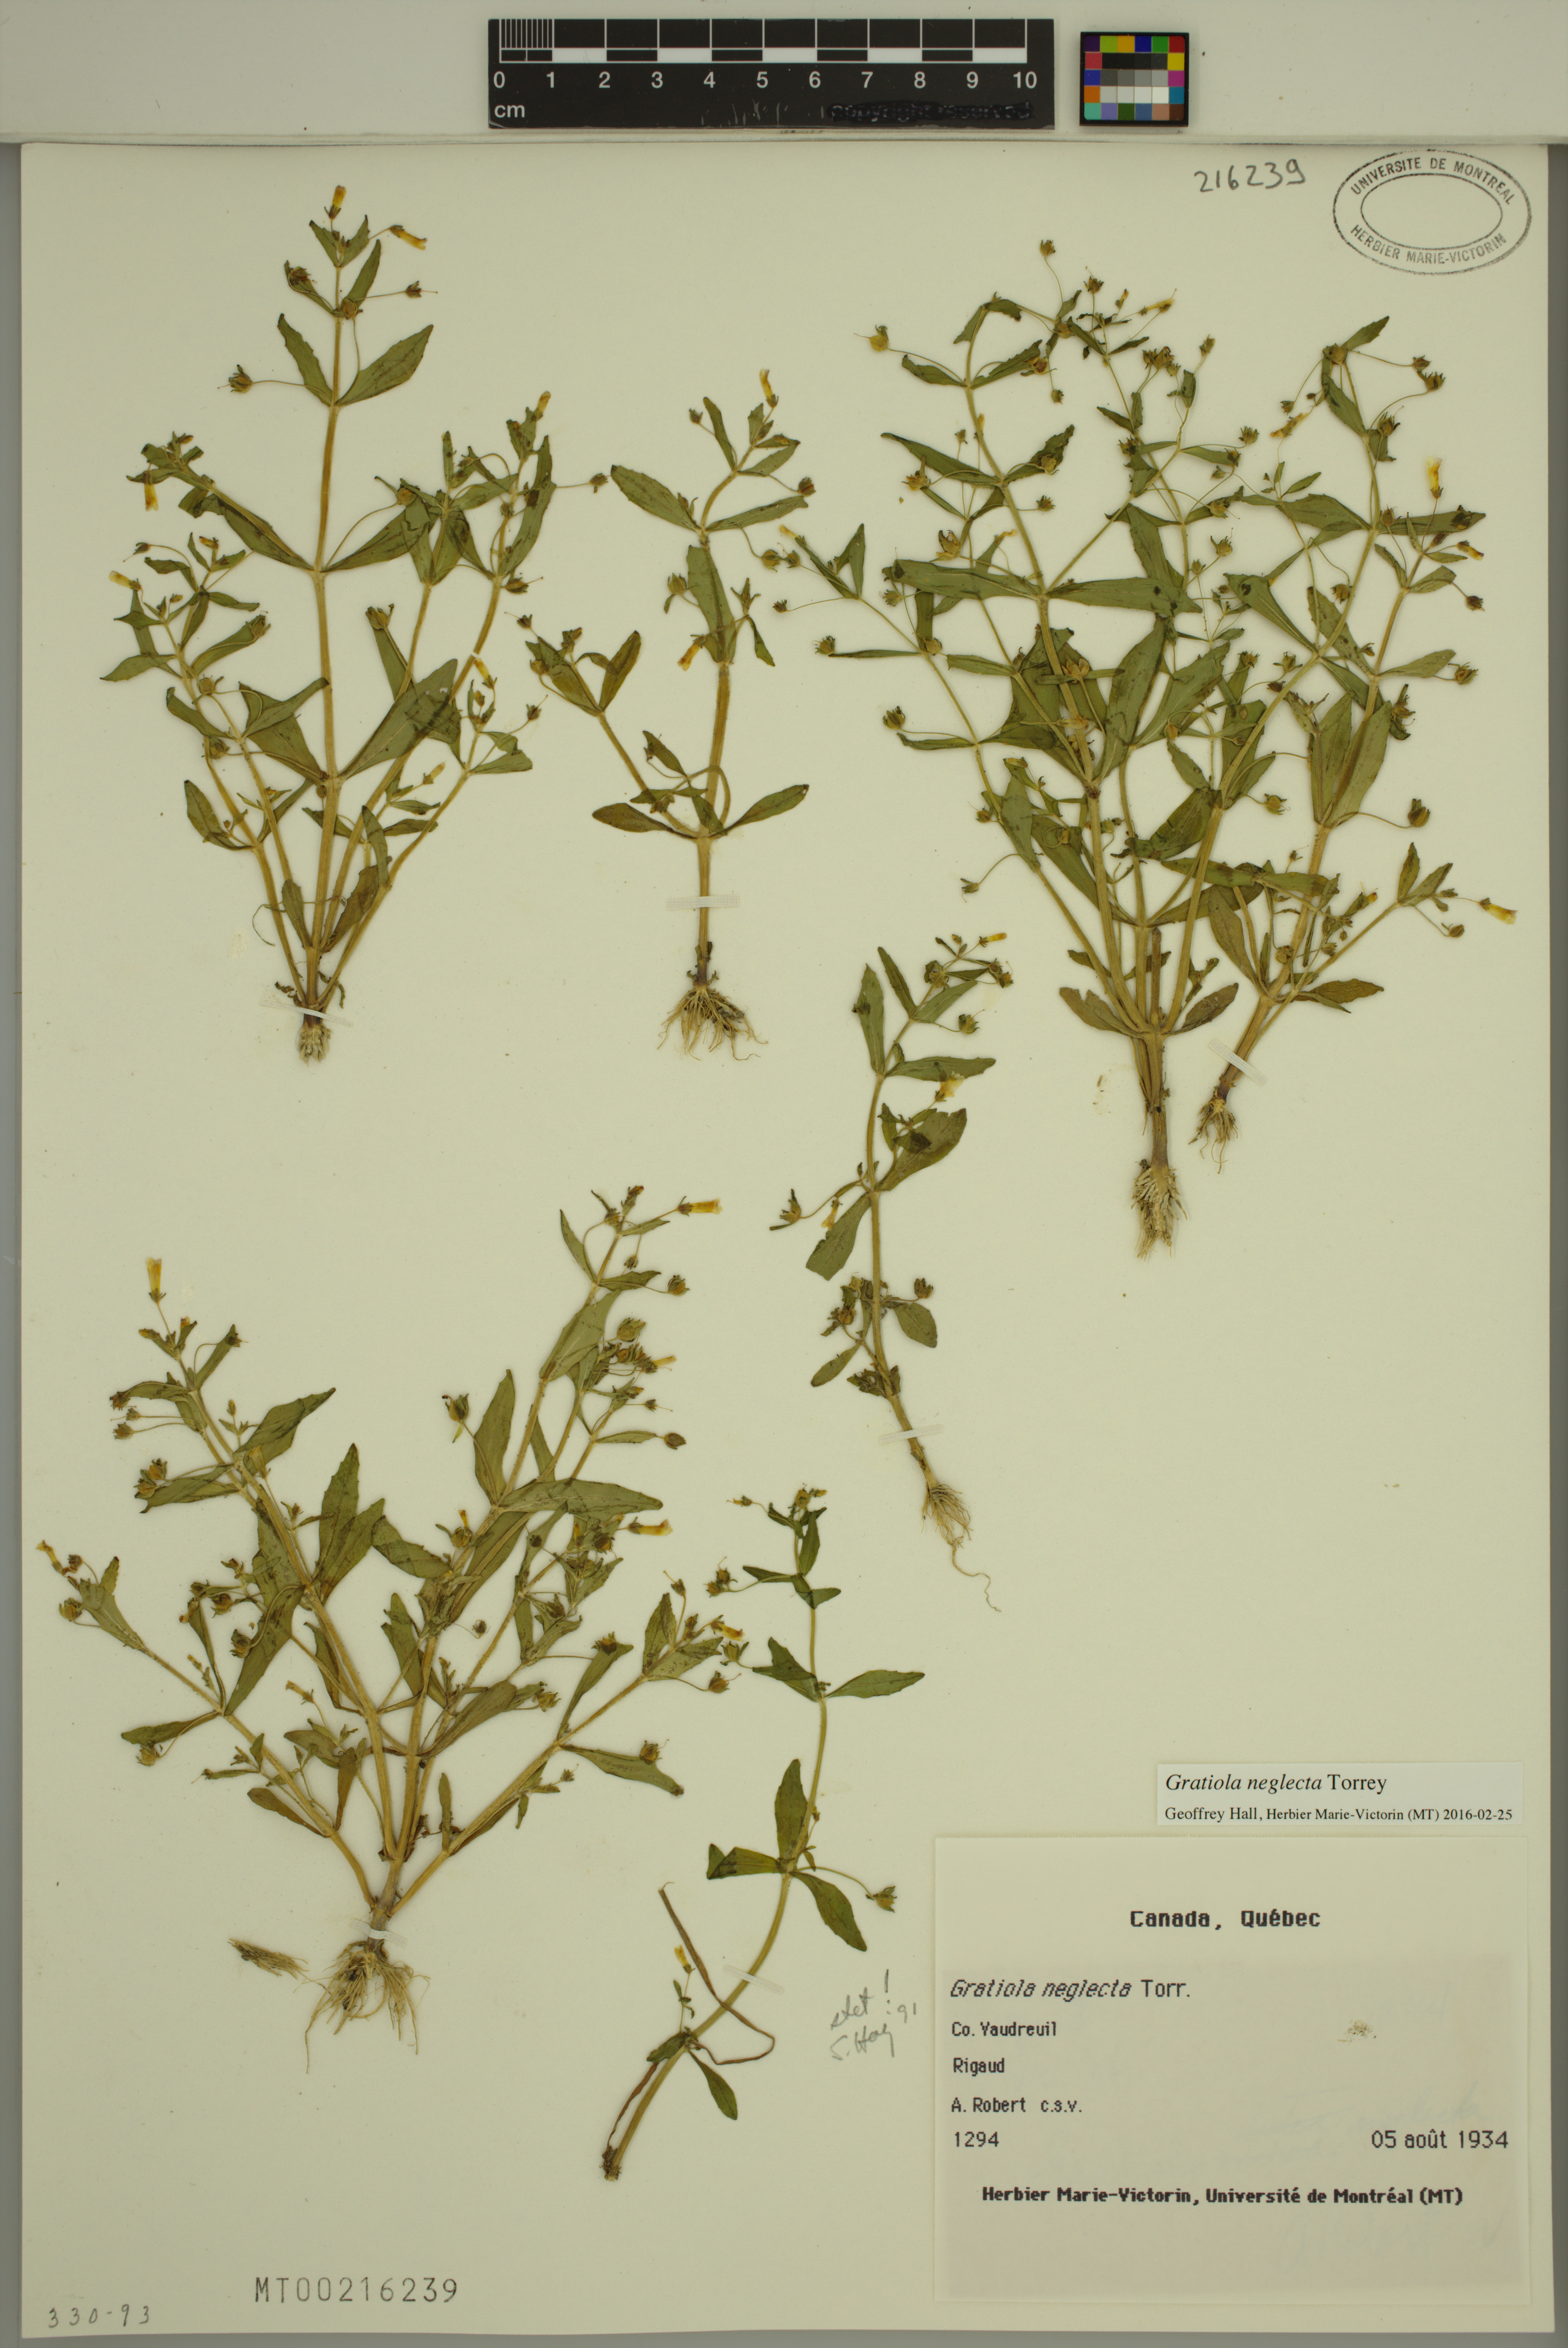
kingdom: Plantae
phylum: Tracheophyta
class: Magnoliopsida
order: Lamiales
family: Plantaginaceae
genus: Gratiola
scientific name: Gratiola neglecta
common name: American hedge-hyssop
